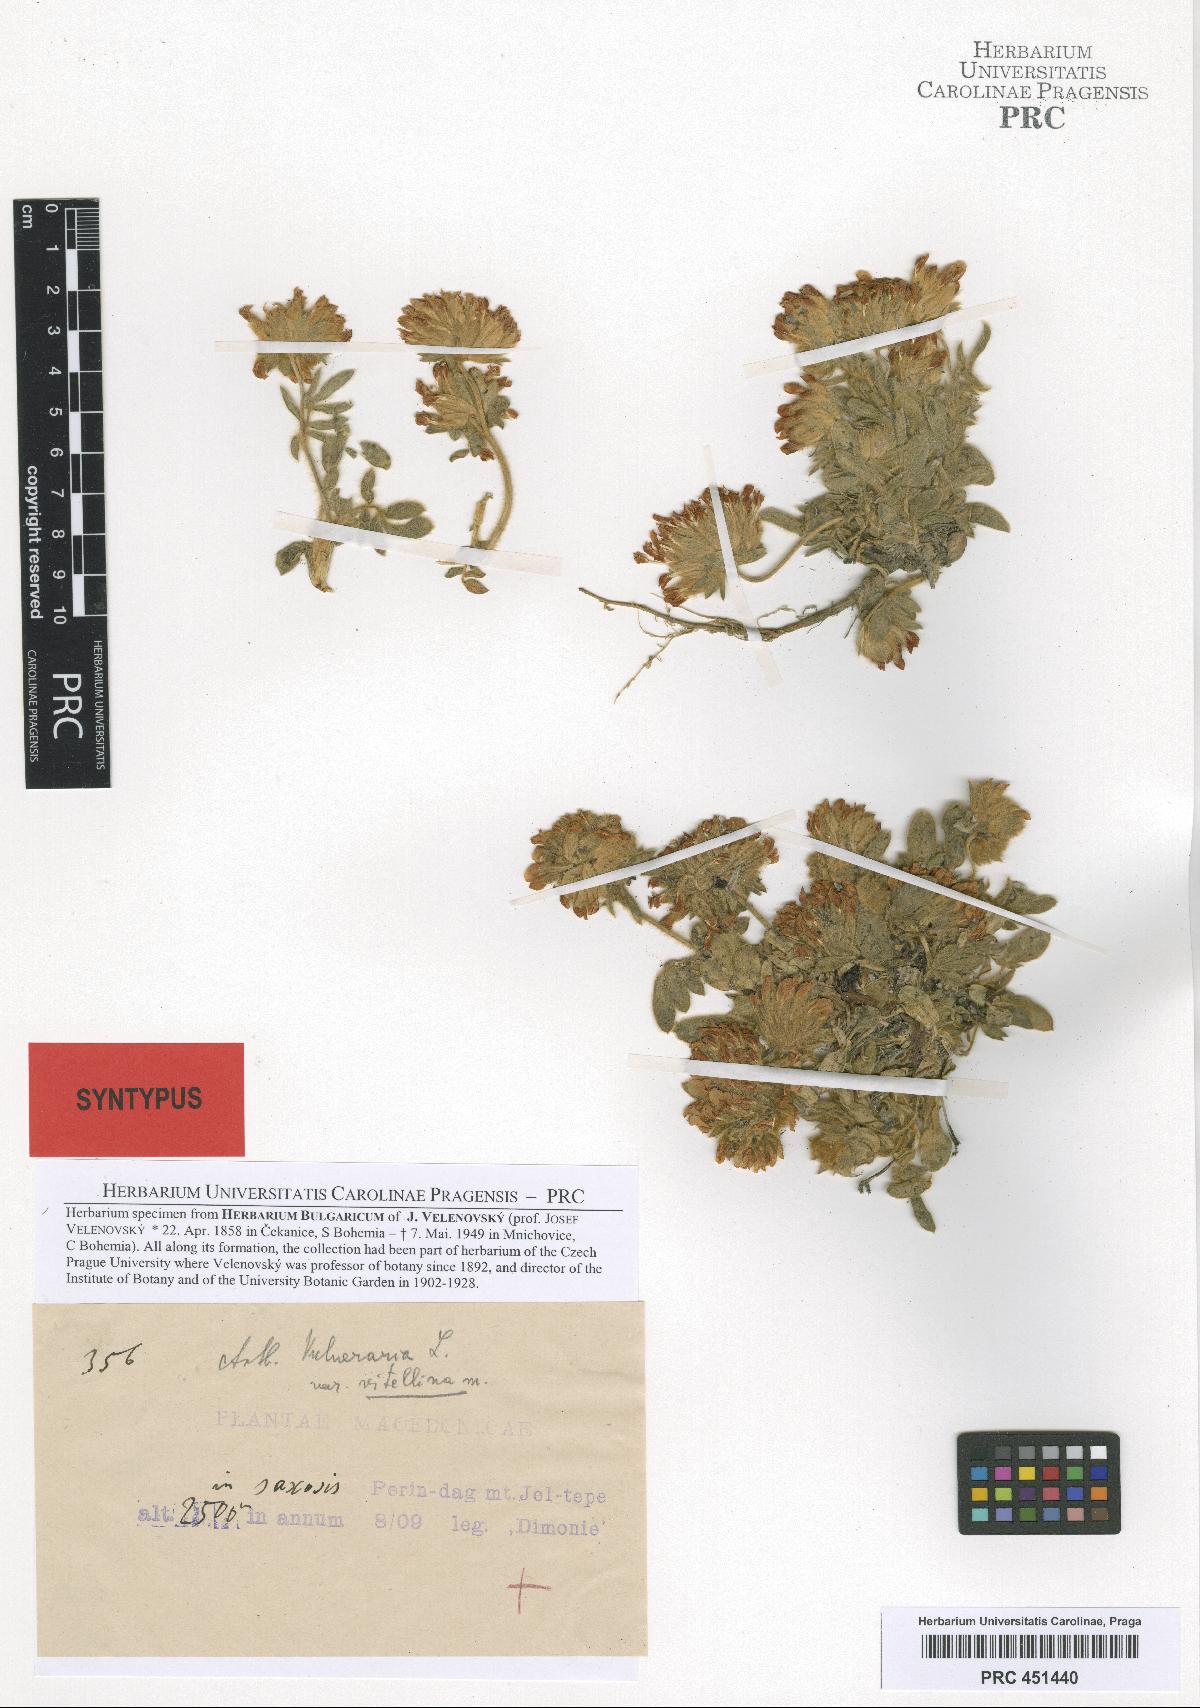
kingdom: Plantae
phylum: Tracheophyta
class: Magnoliopsida
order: Fabales
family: Fabaceae
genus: Anthyllis
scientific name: Anthyllis vulneraria
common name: Kidney vetch
